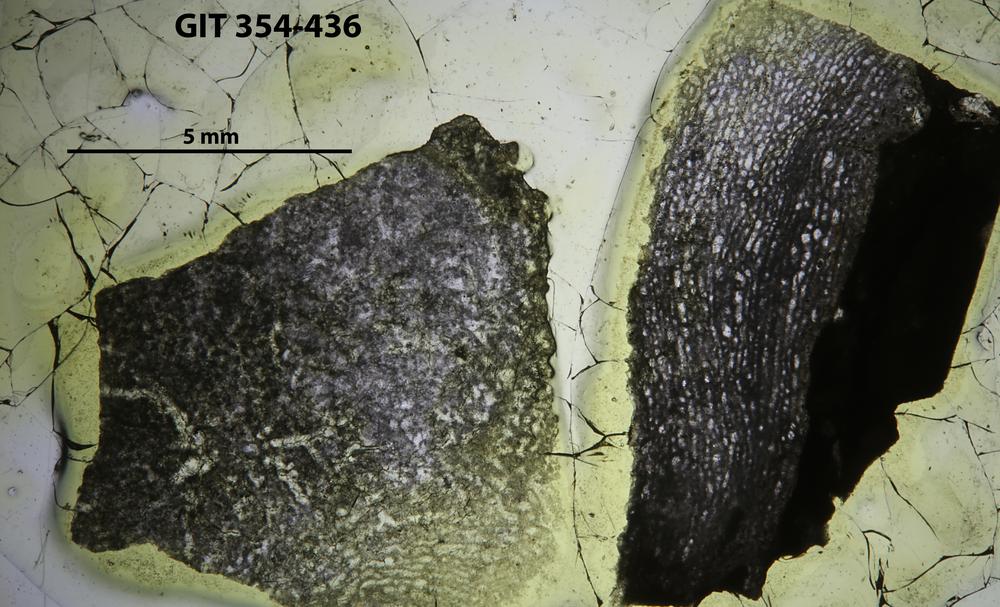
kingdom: Animalia
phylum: Porifera
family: Clathrodictyidae
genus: Clathrodictyon
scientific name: Clathrodictyon Stromatopora variolaris
